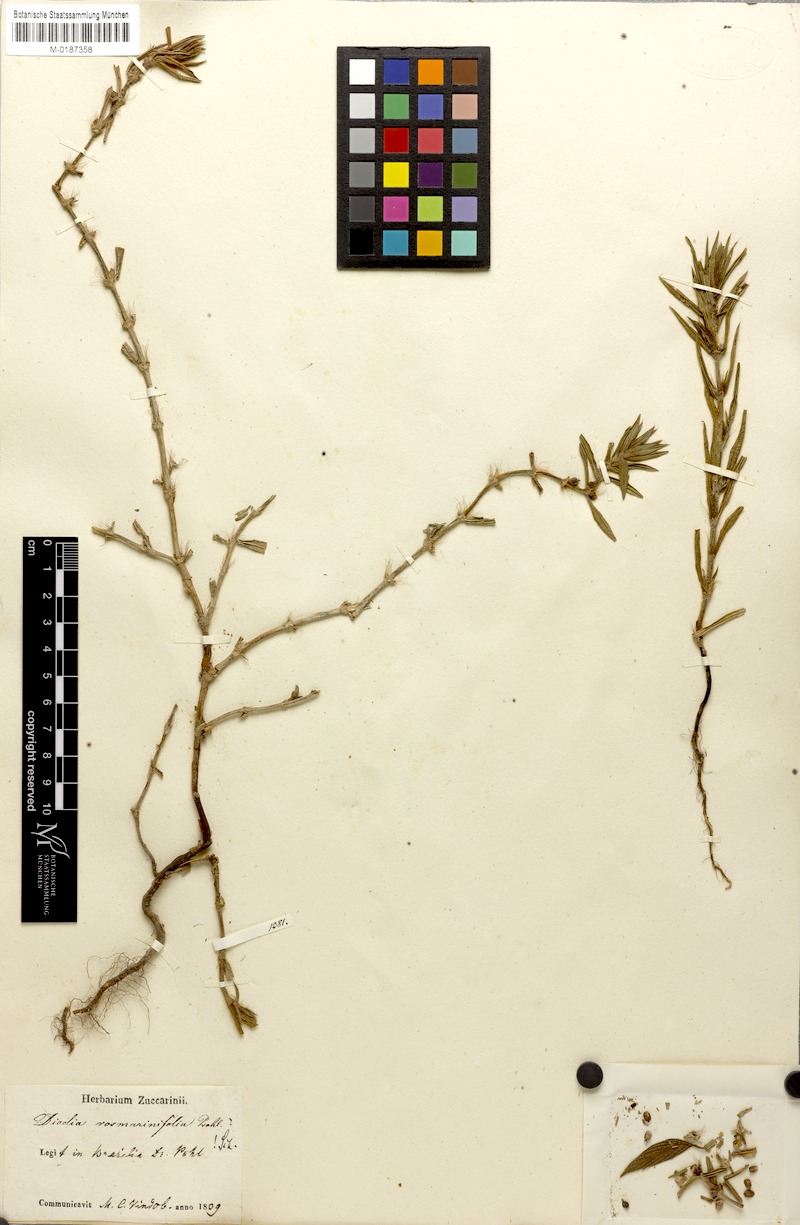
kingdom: Plantae
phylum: Tracheophyta
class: Magnoliopsida
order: Gentianales
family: Rubiaceae
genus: Hexasepalum
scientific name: Hexasepalum rosmarinifolium
